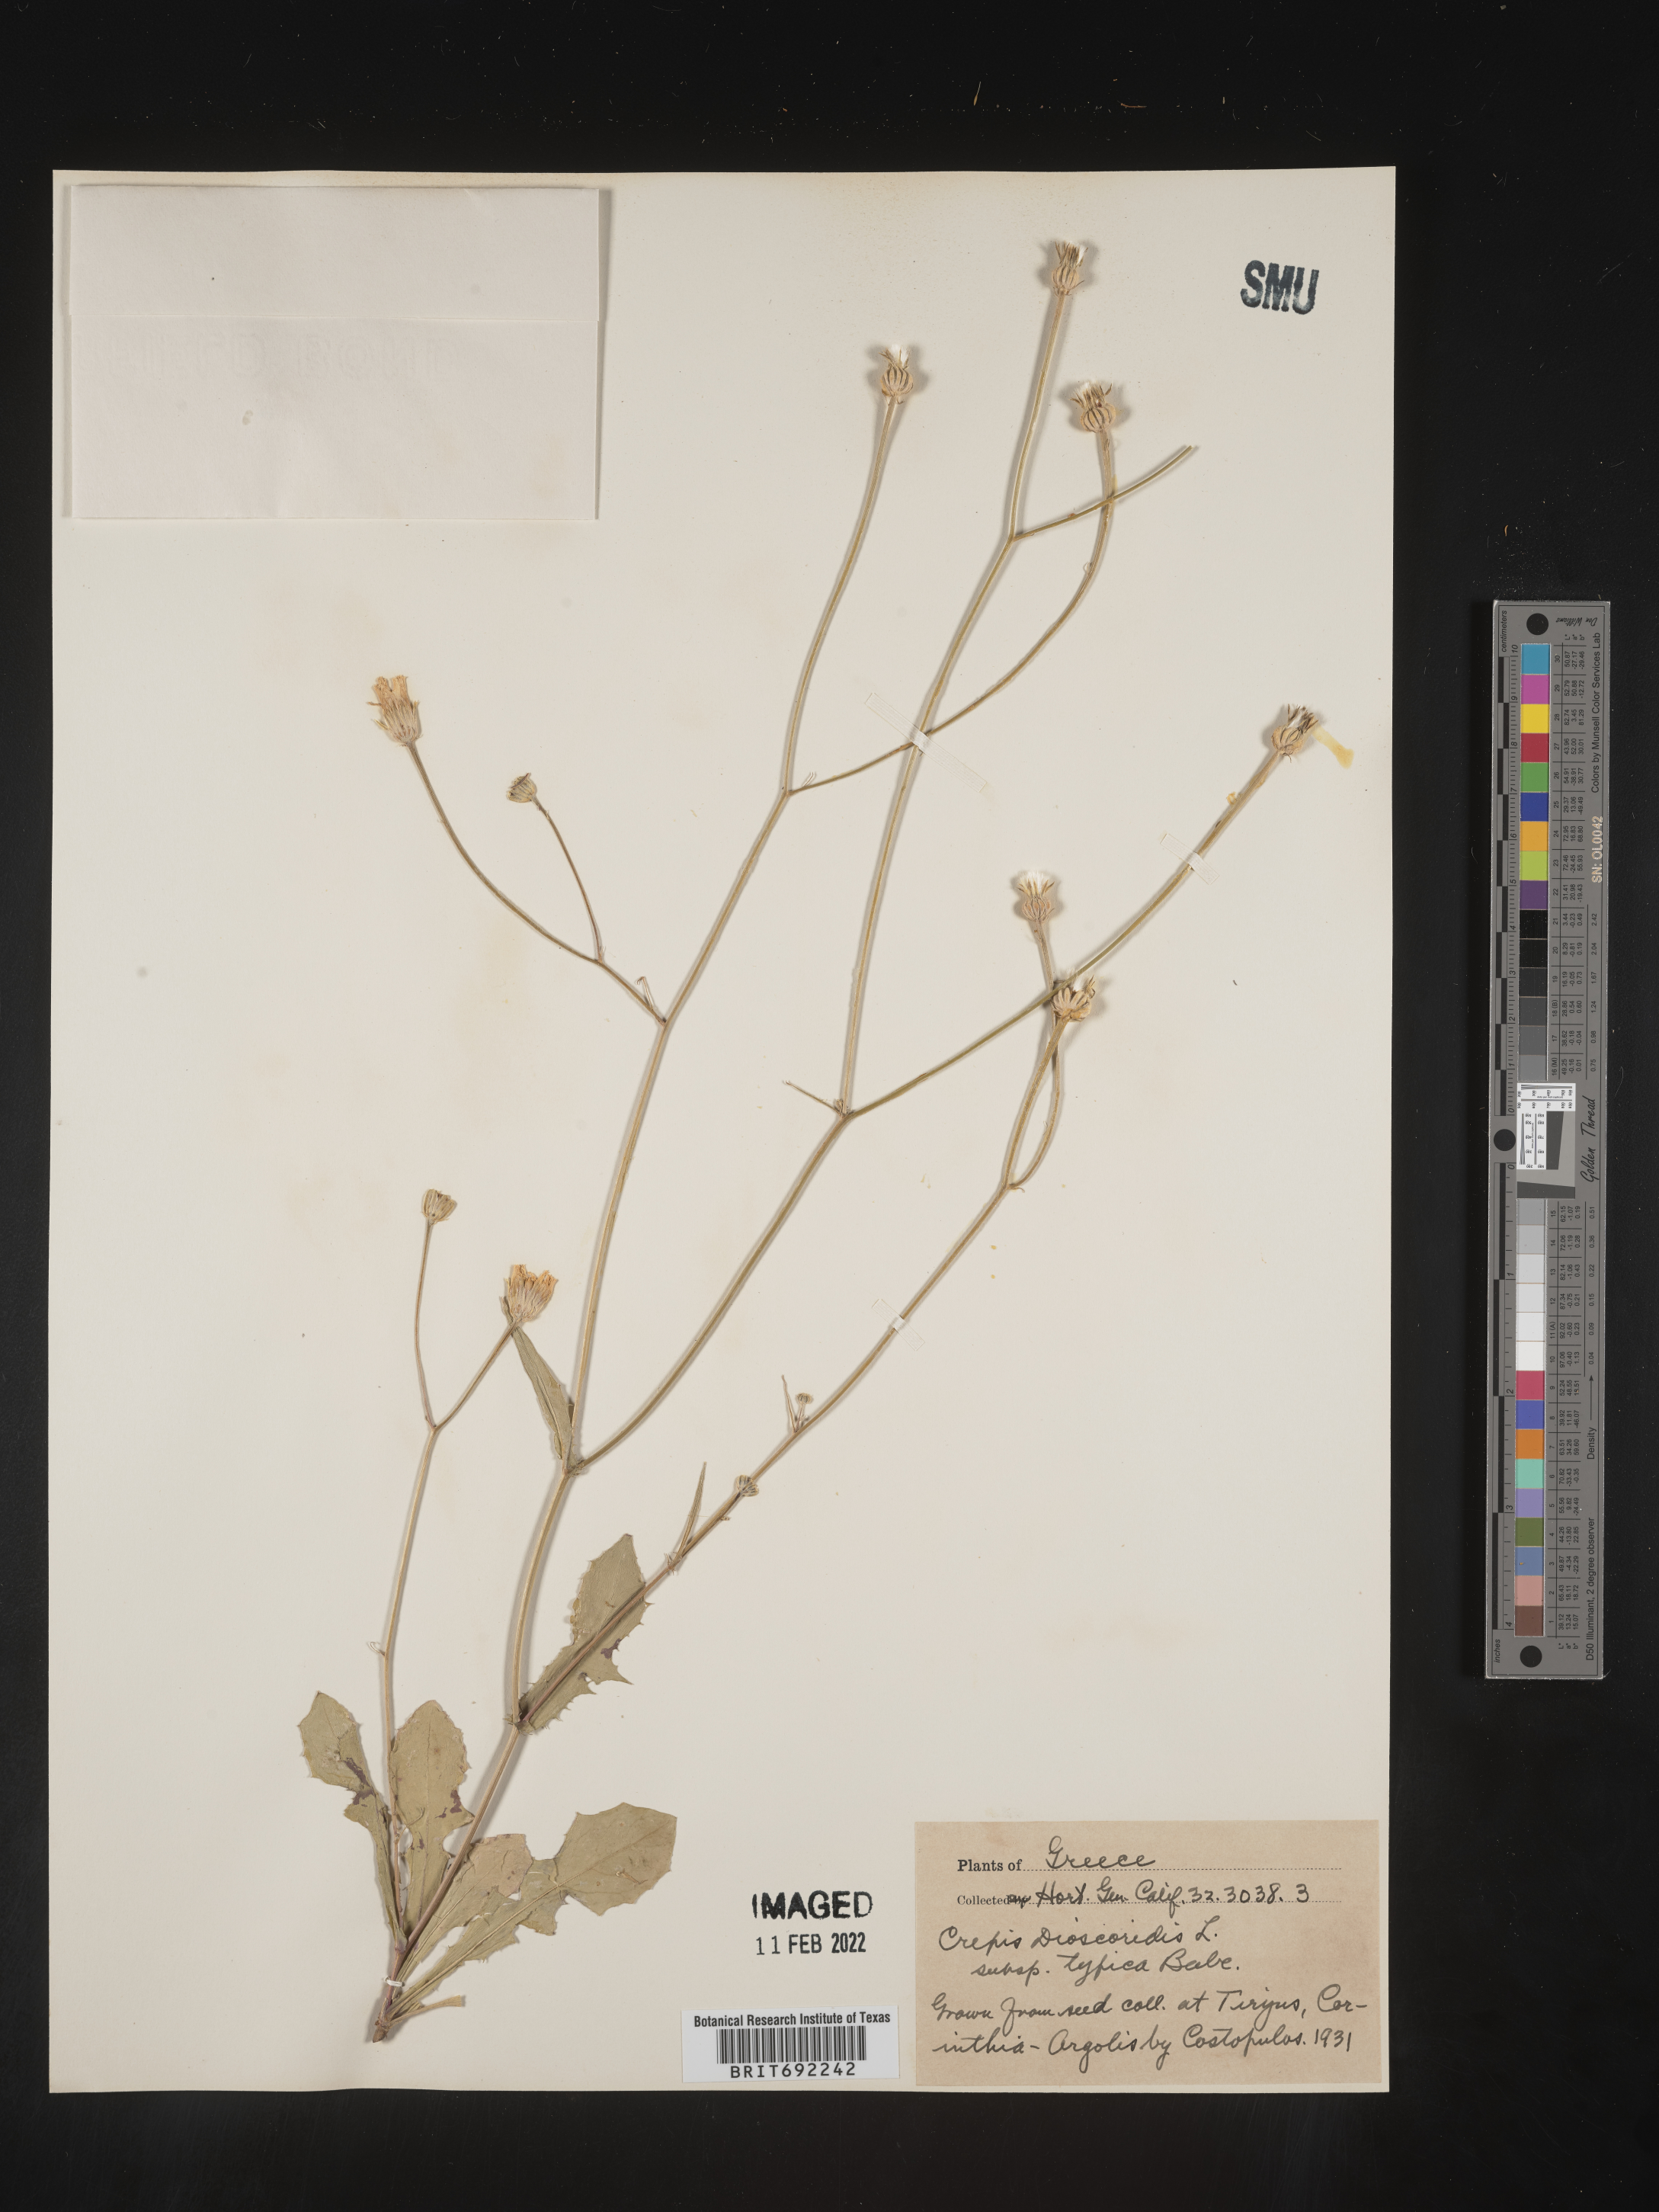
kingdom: Plantae
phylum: Tracheophyta
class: Magnoliopsida
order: Asterales
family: Asteraceae
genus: Critonia
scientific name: Critonia
